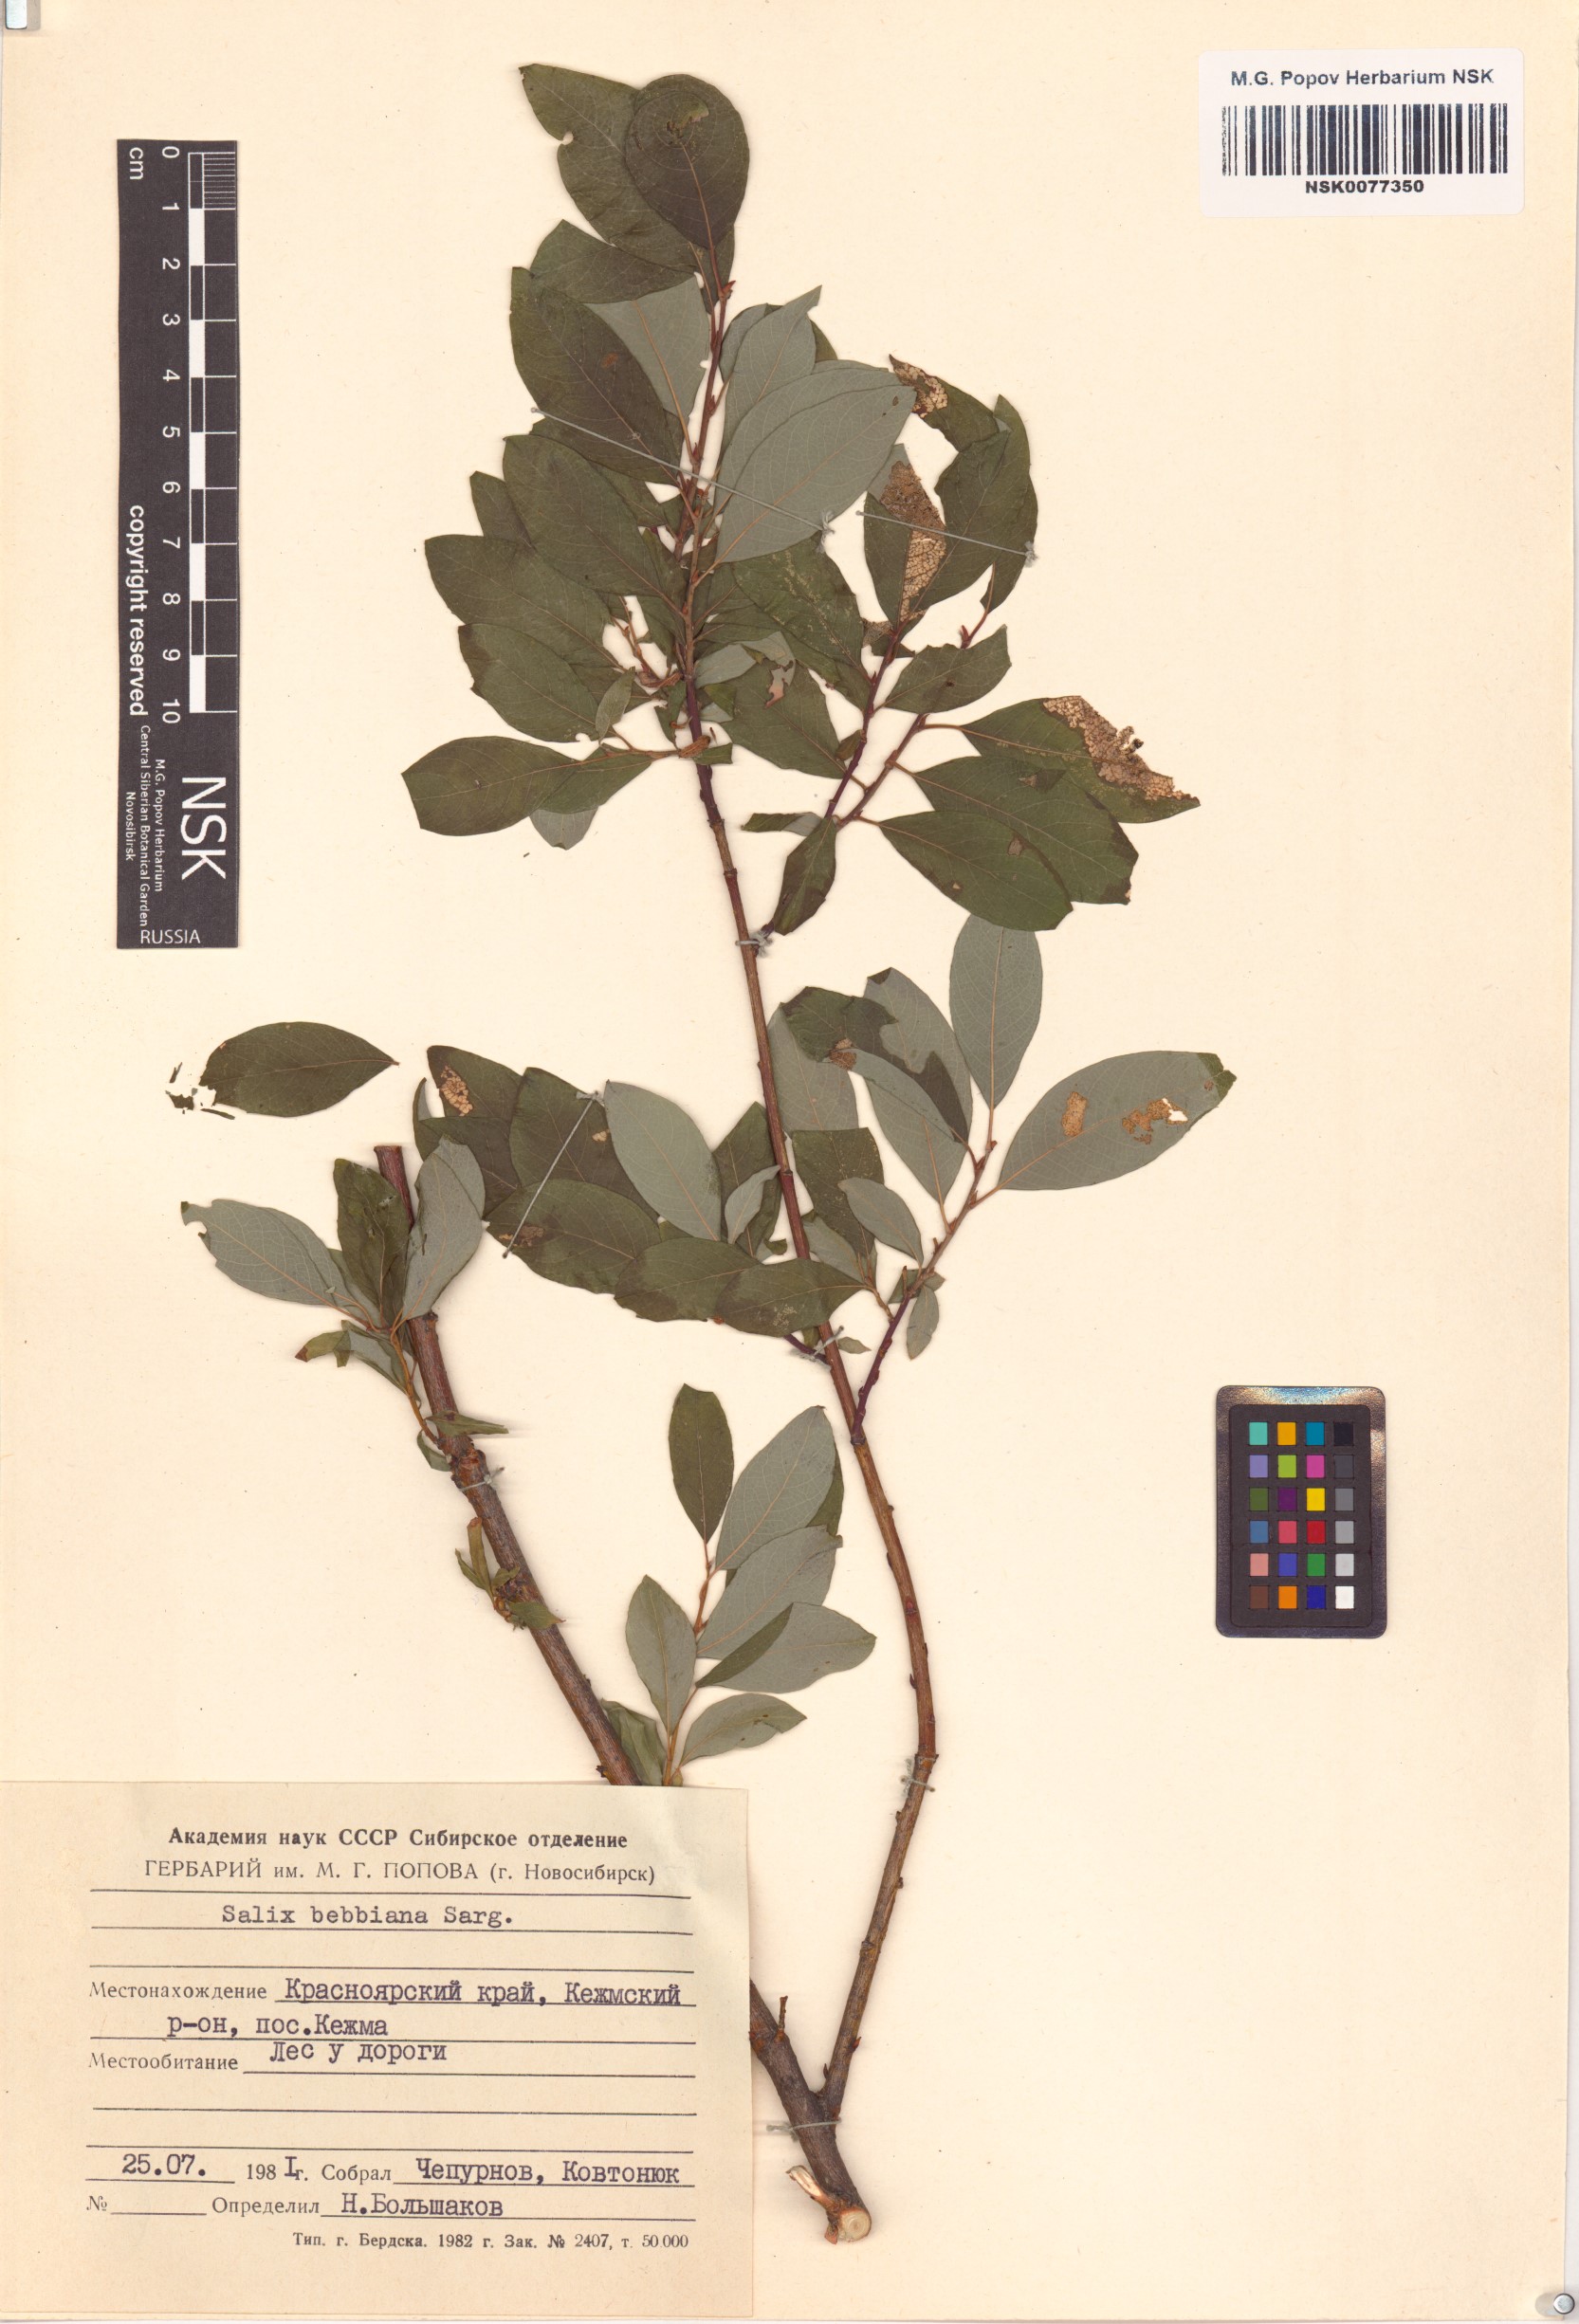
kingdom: Plantae
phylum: Tracheophyta
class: Magnoliopsida
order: Malpighiales
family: Salicaceae
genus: Salix
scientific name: Salix bebbiana
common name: Bebb's willow
